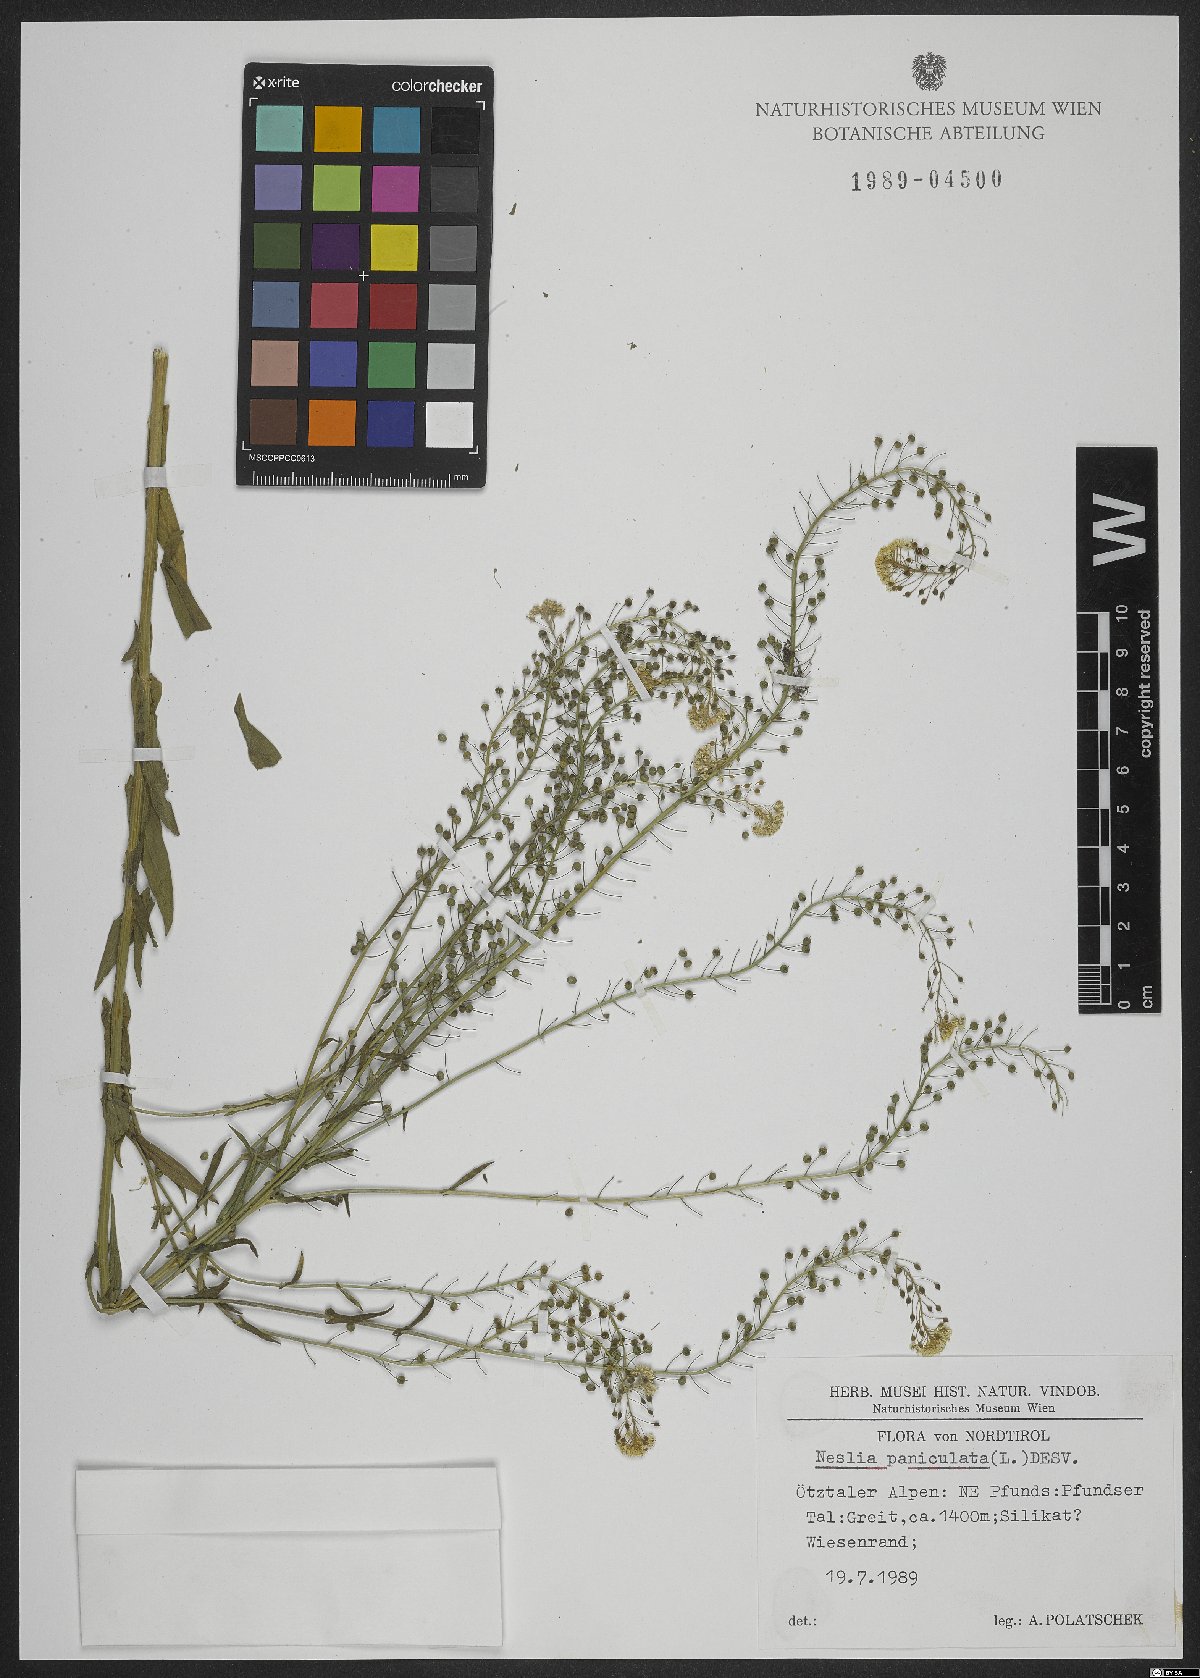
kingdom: Plantae
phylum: Tracheophyta
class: Magnoliopsida
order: Brassicales
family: Brassicaceae
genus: Neslia
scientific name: Neslia paniculata
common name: Ball mustard
